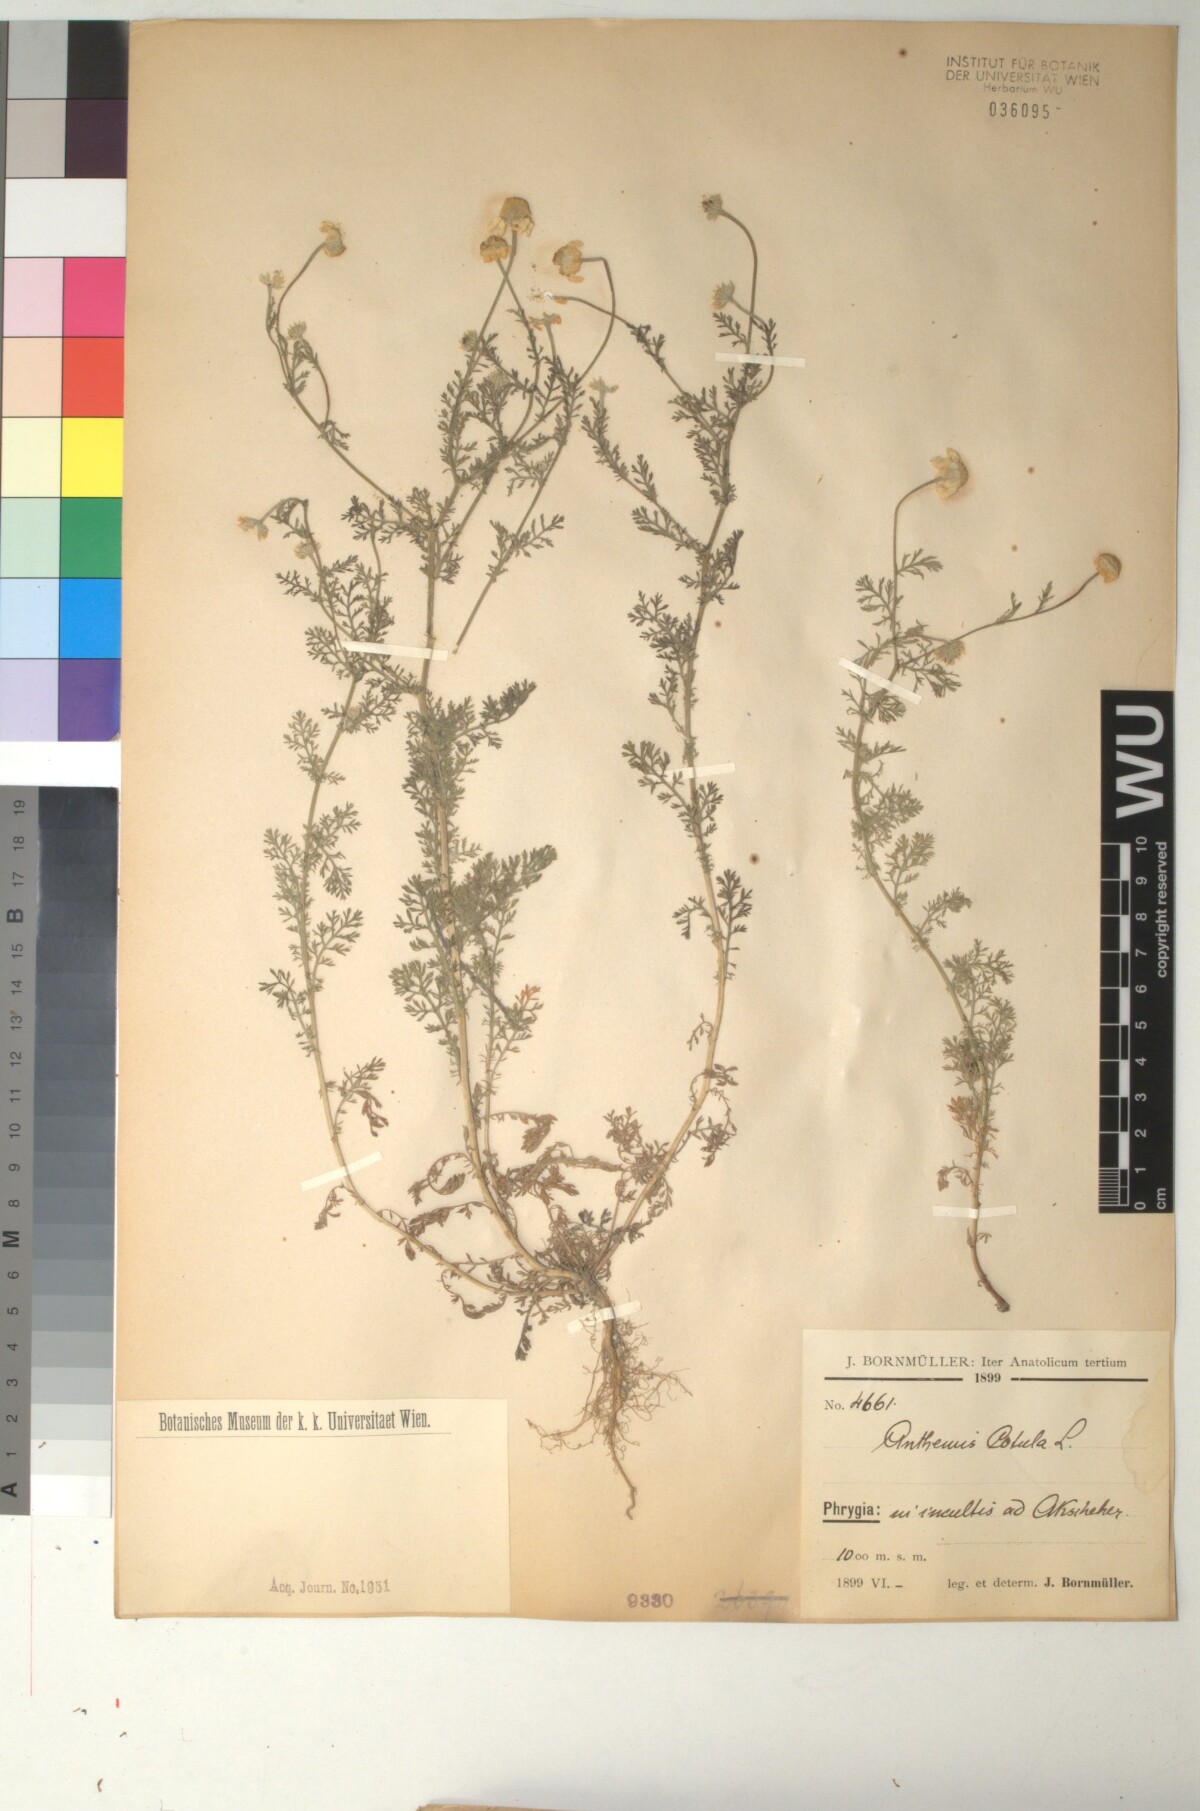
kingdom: Plantae
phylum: Tracheophyta
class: Magnoliopsida
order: Asterales
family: Asteraceae
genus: Anthemis
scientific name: Anthemis cotula
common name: Stinking chamomile
